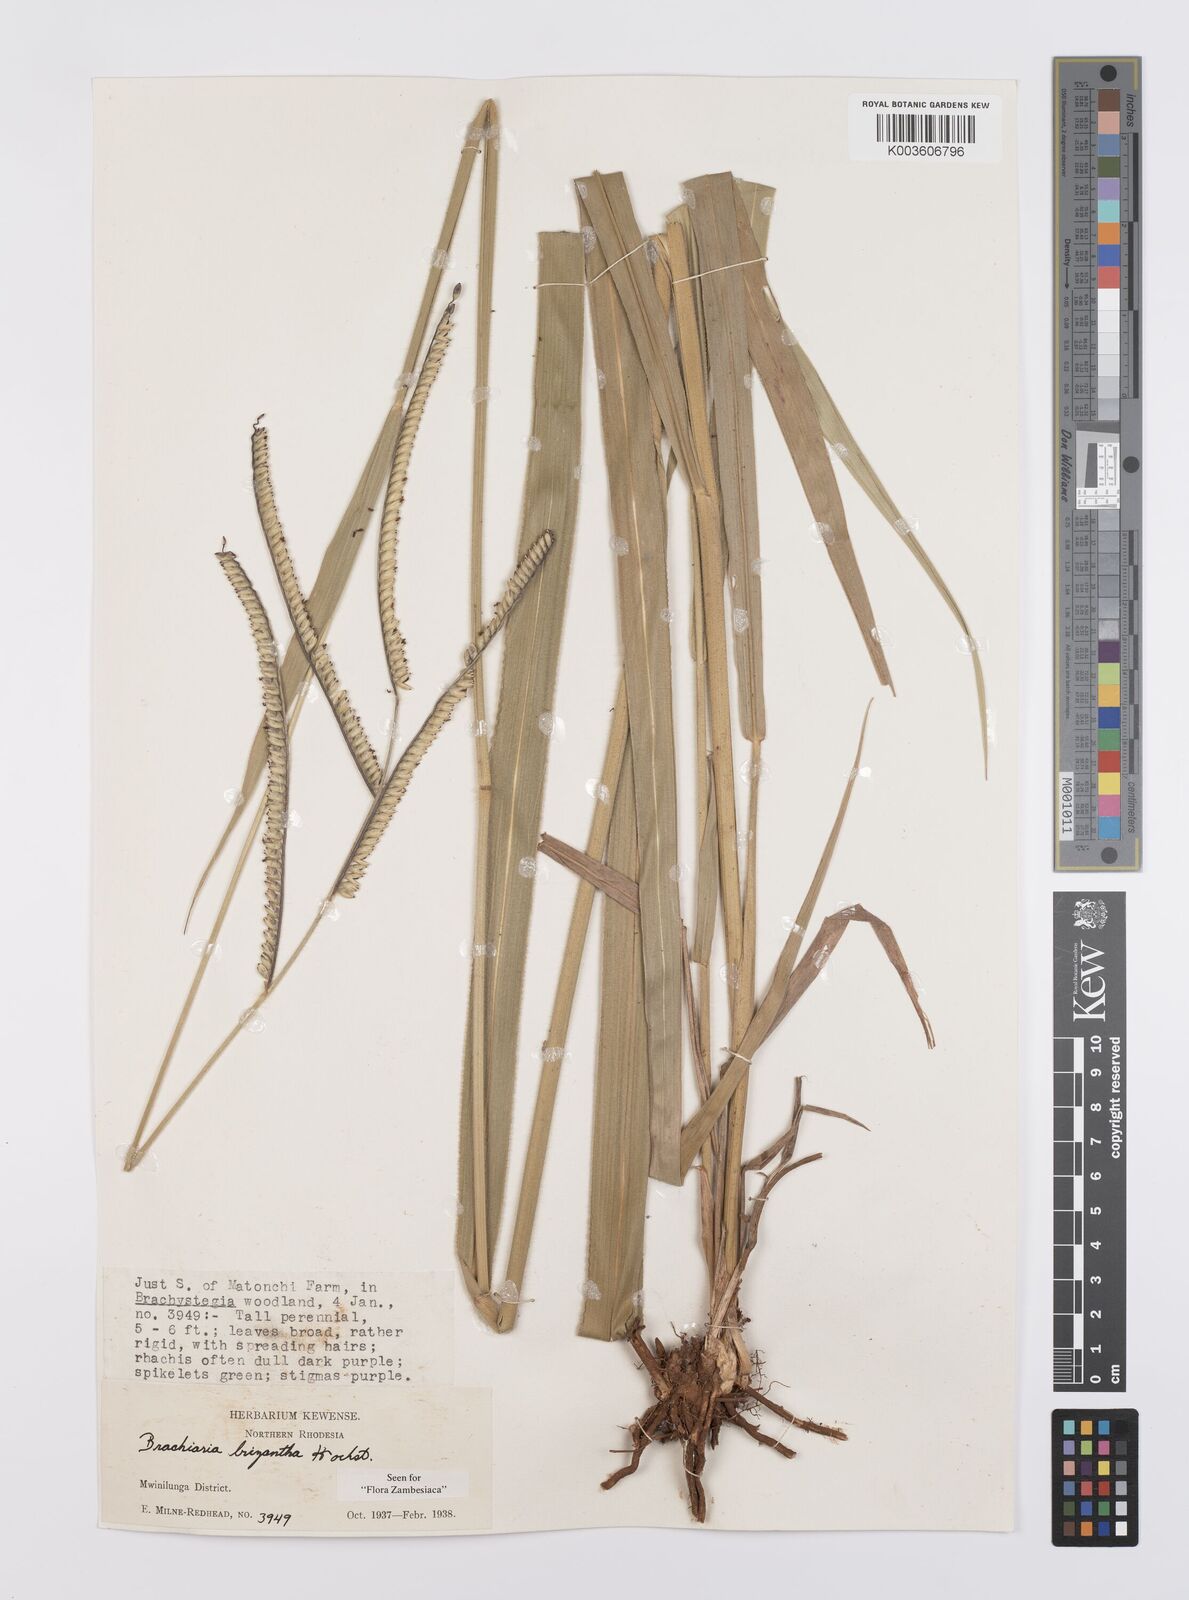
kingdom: Plantae
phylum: Tracheophyta
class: Liliopsida
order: Poales
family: Poaceae
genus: Urochloa
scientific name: Urochloa brizantha
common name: Palisade signalgrass
